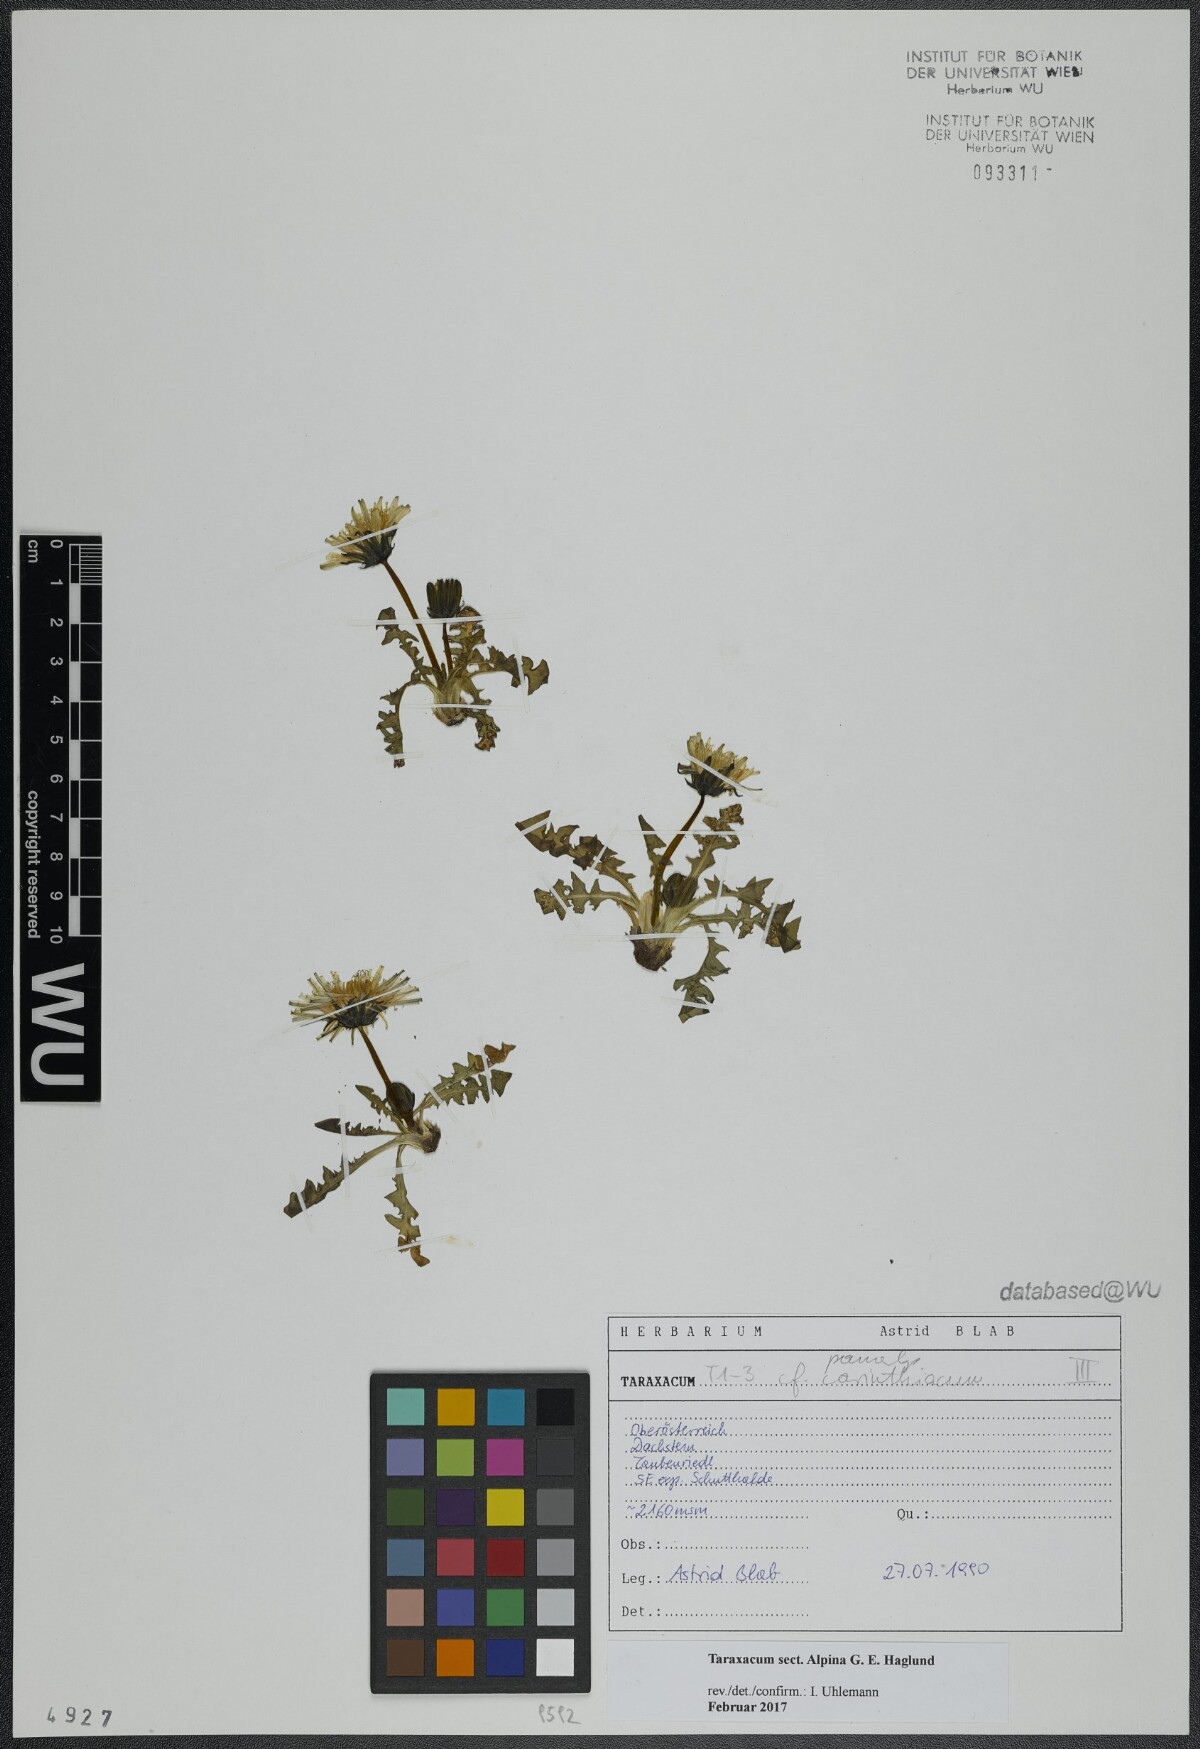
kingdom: Plantae
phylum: Tracheophyta
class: Magnoliopsida
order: Asterales
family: Asteraceae
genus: Taraxacum
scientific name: Taraxacum
